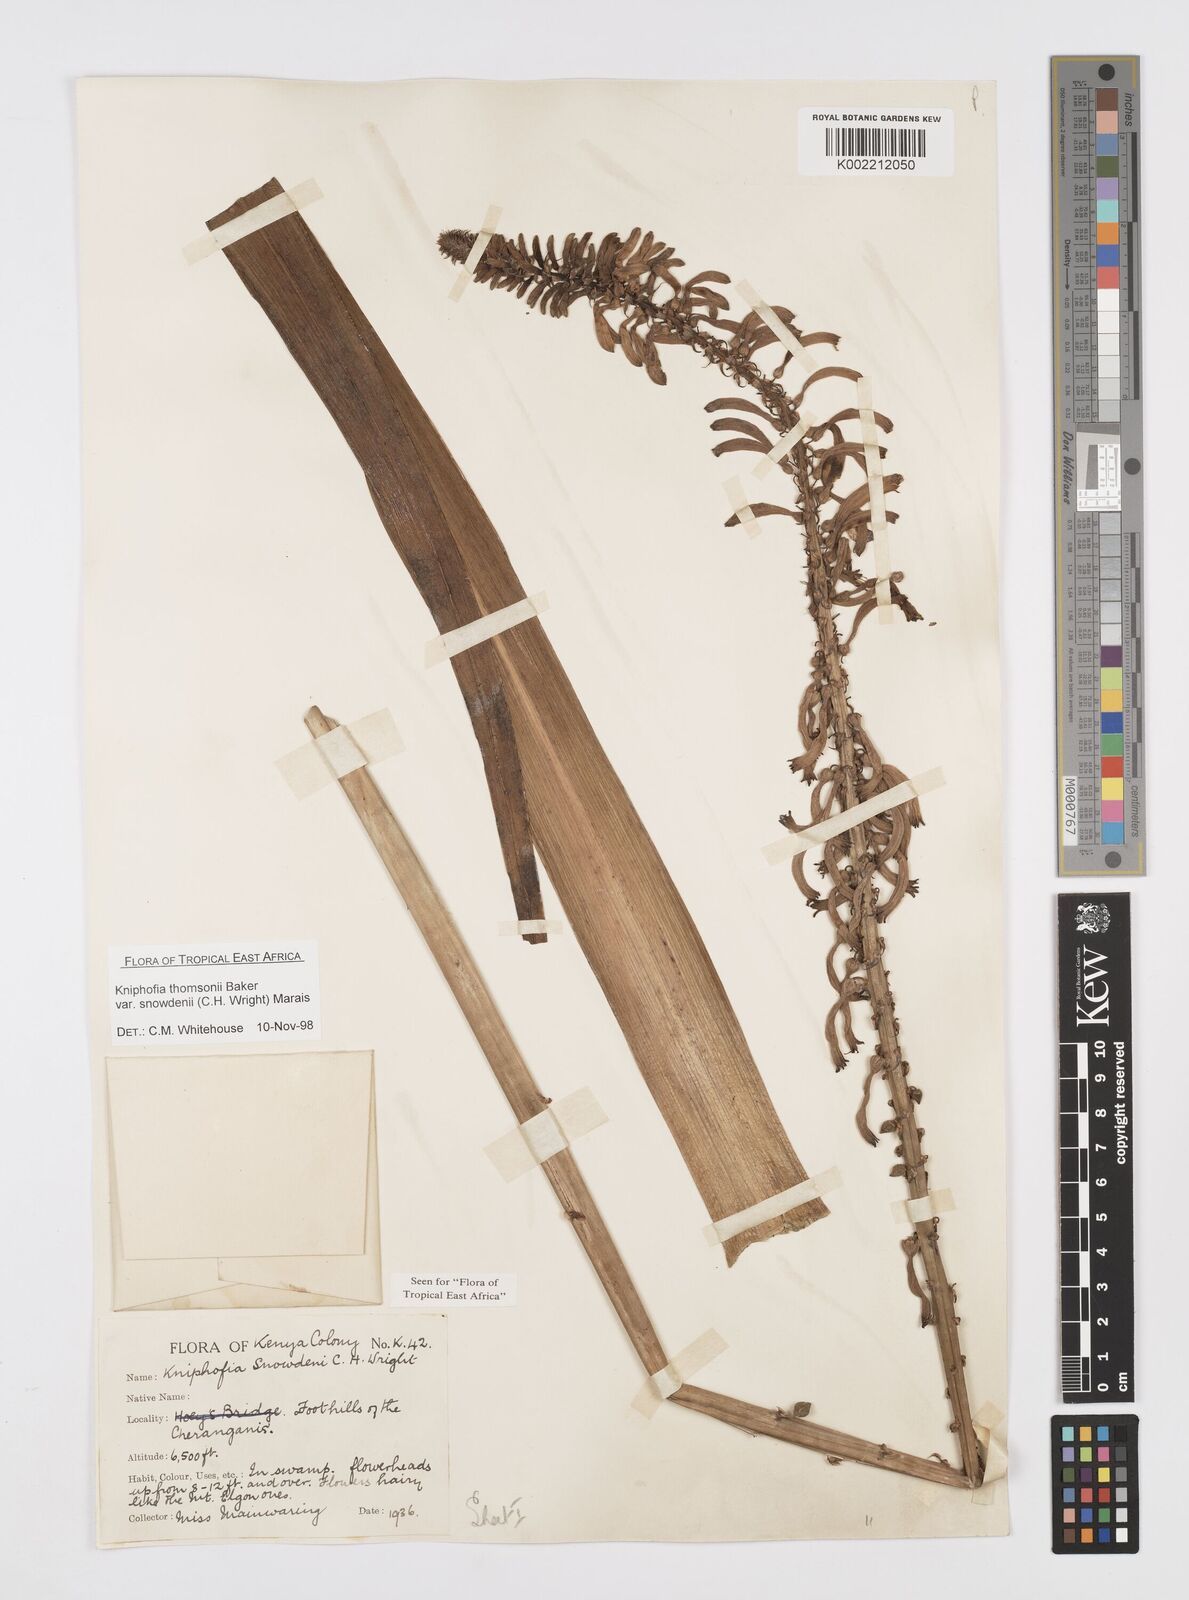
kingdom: Plantae
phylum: Tracheophyta
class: Liliopsida
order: Asparagales
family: Asphodelaceae
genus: Kniphofia
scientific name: Kniphofia
